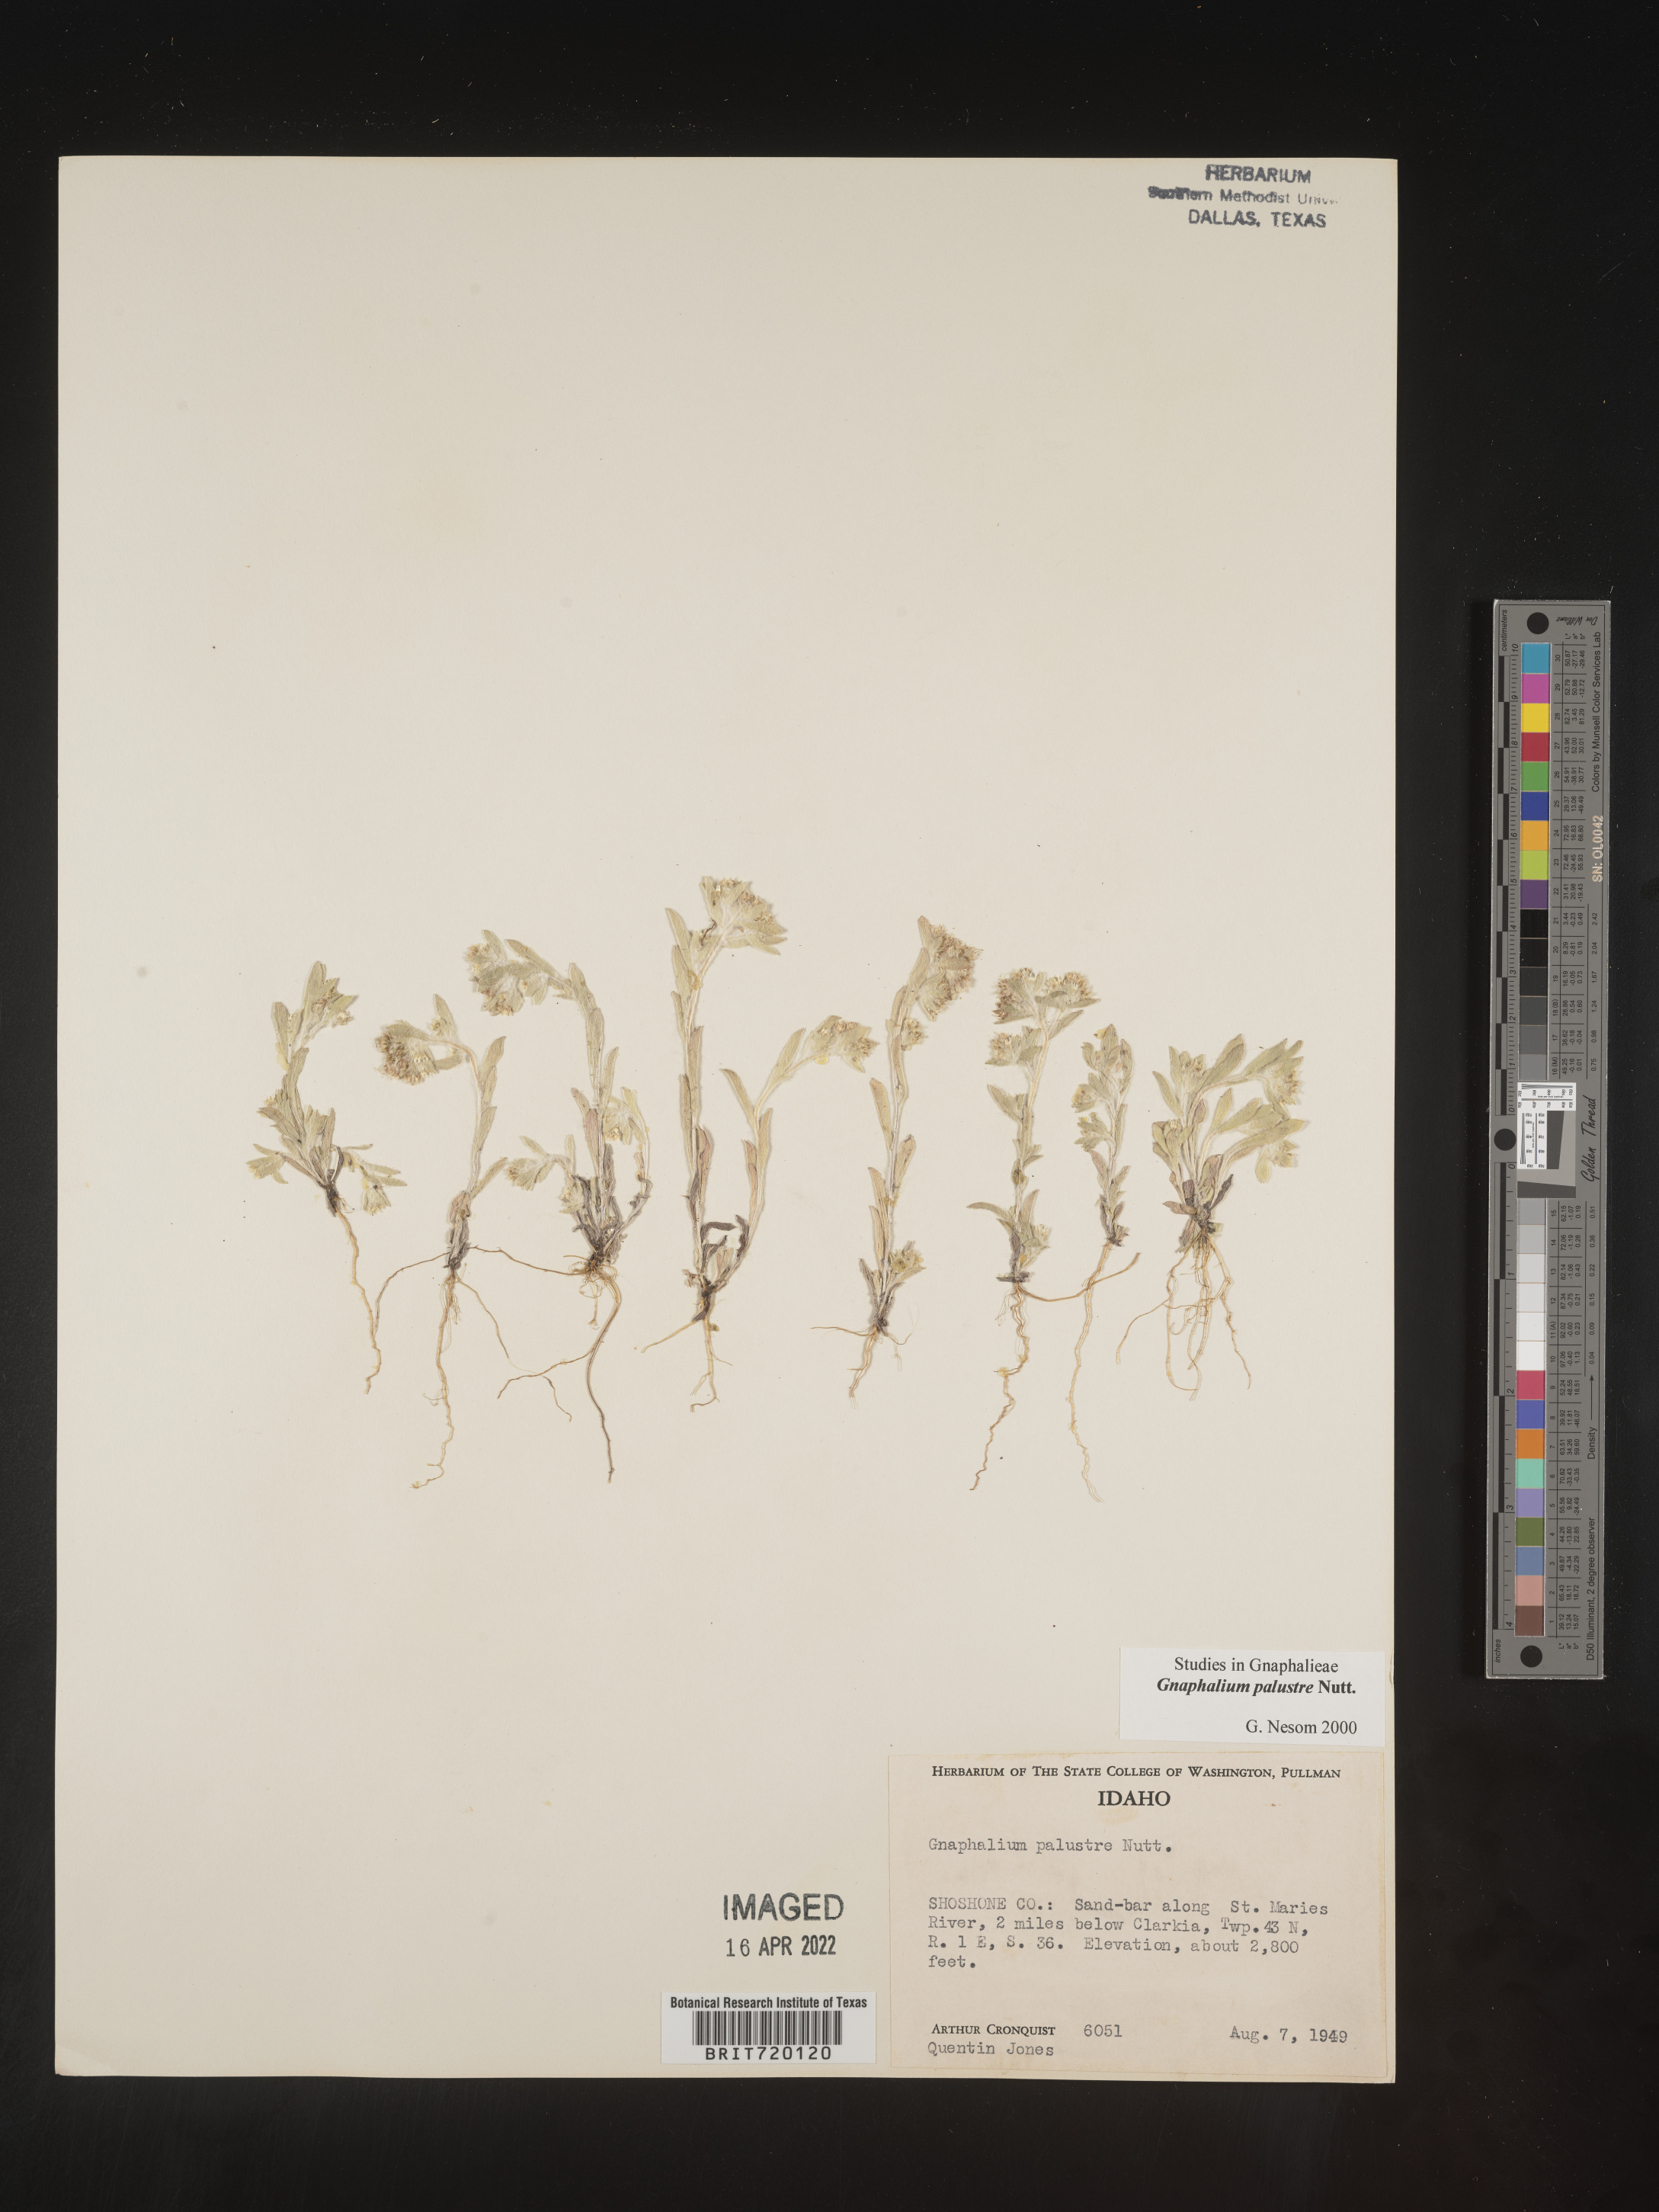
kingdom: Plantae
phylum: Tracheophyta
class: Magnoliopsida
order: Asterales
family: Asteraceae
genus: Gnaphalium
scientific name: Gnaphalium palustre
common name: Western marsh cudweed
